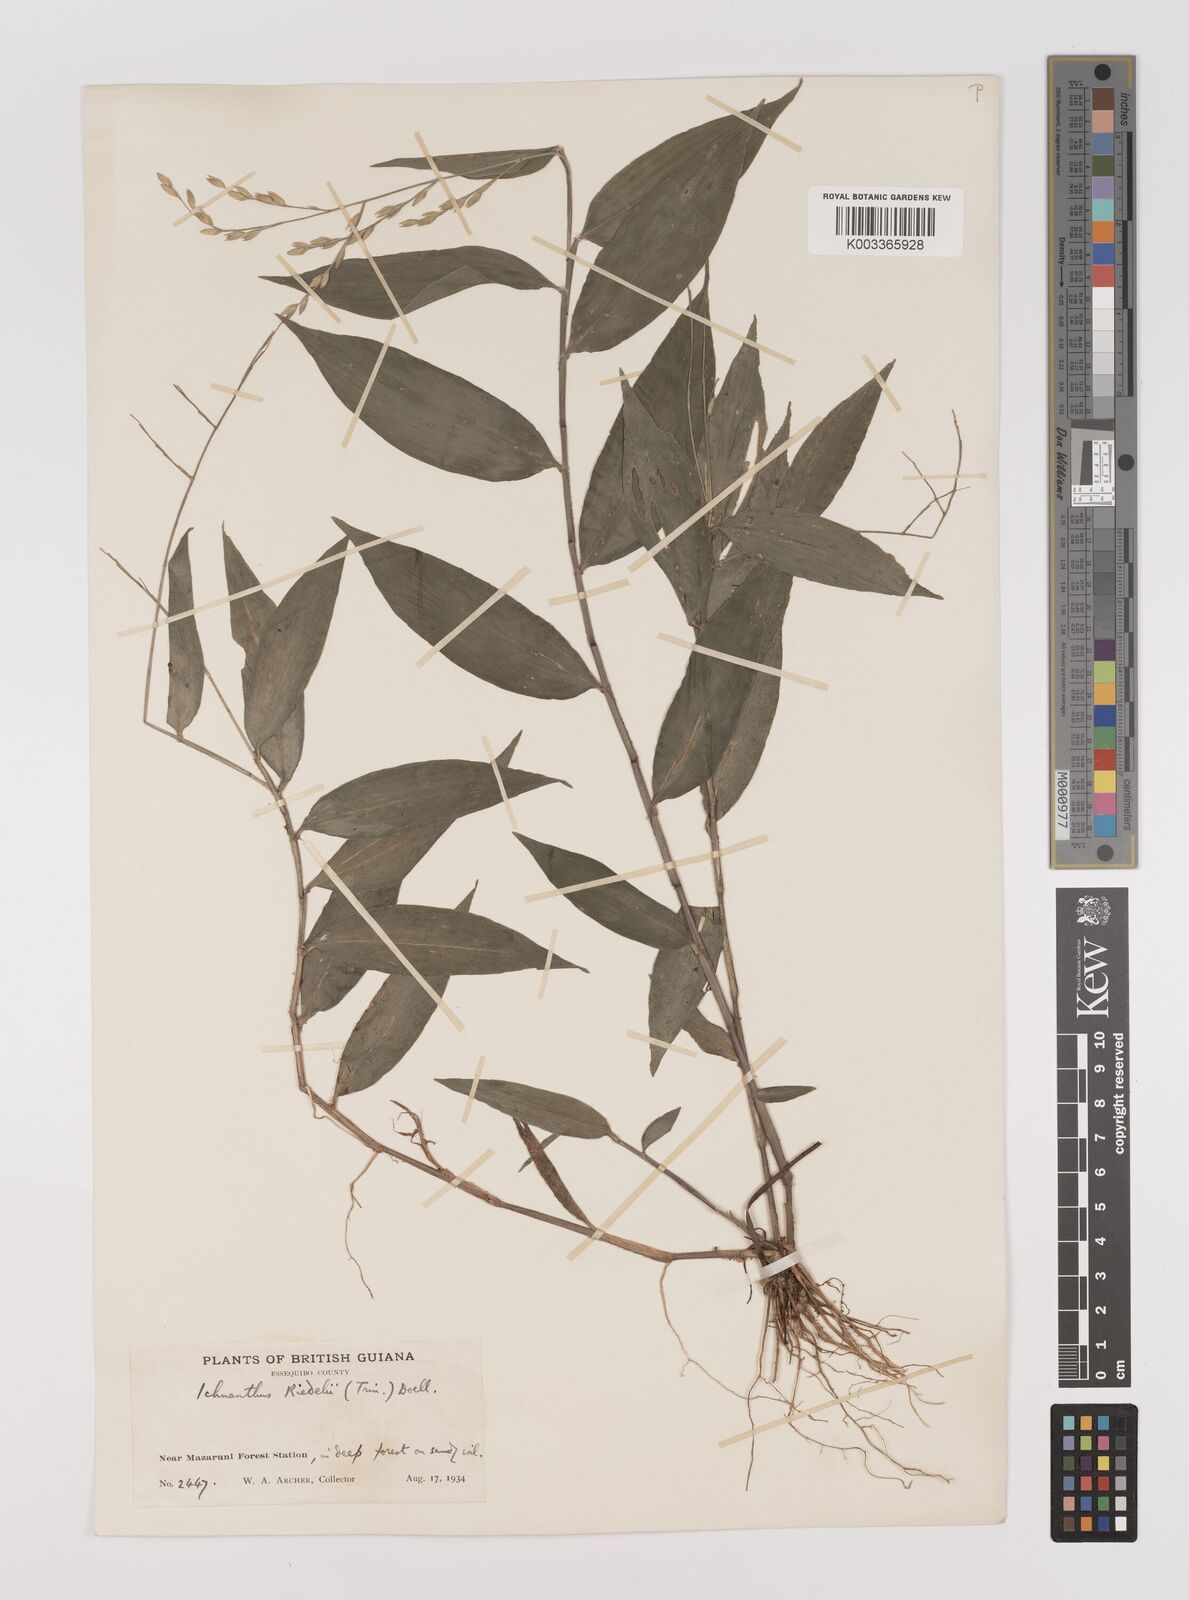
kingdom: Plantae
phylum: Tracheophyta
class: Liliopsida
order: Poales
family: Poaceae
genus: Ichnanthus
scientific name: Ichnanthus nemoralis
